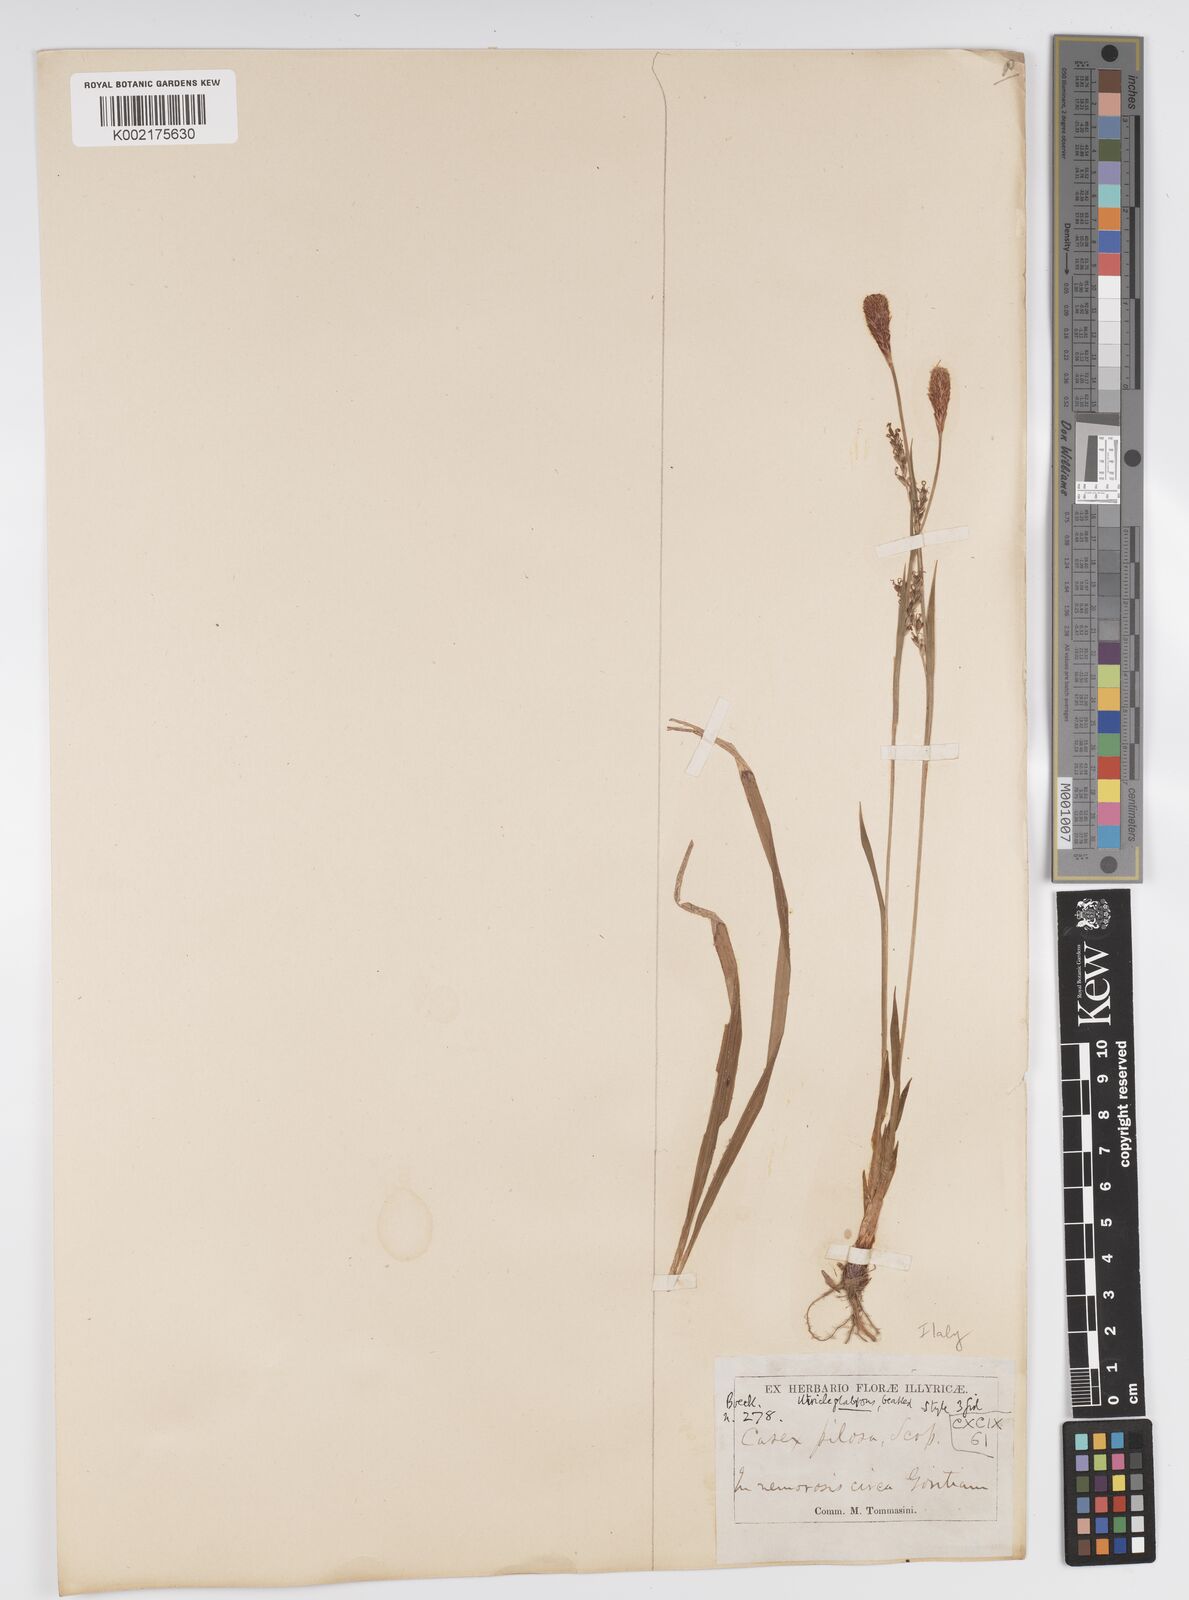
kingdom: Plantae
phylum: Tracheophyta
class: Liliopsida
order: Poales
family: Cyperaceae
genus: Carex
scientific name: Carex pilosa
